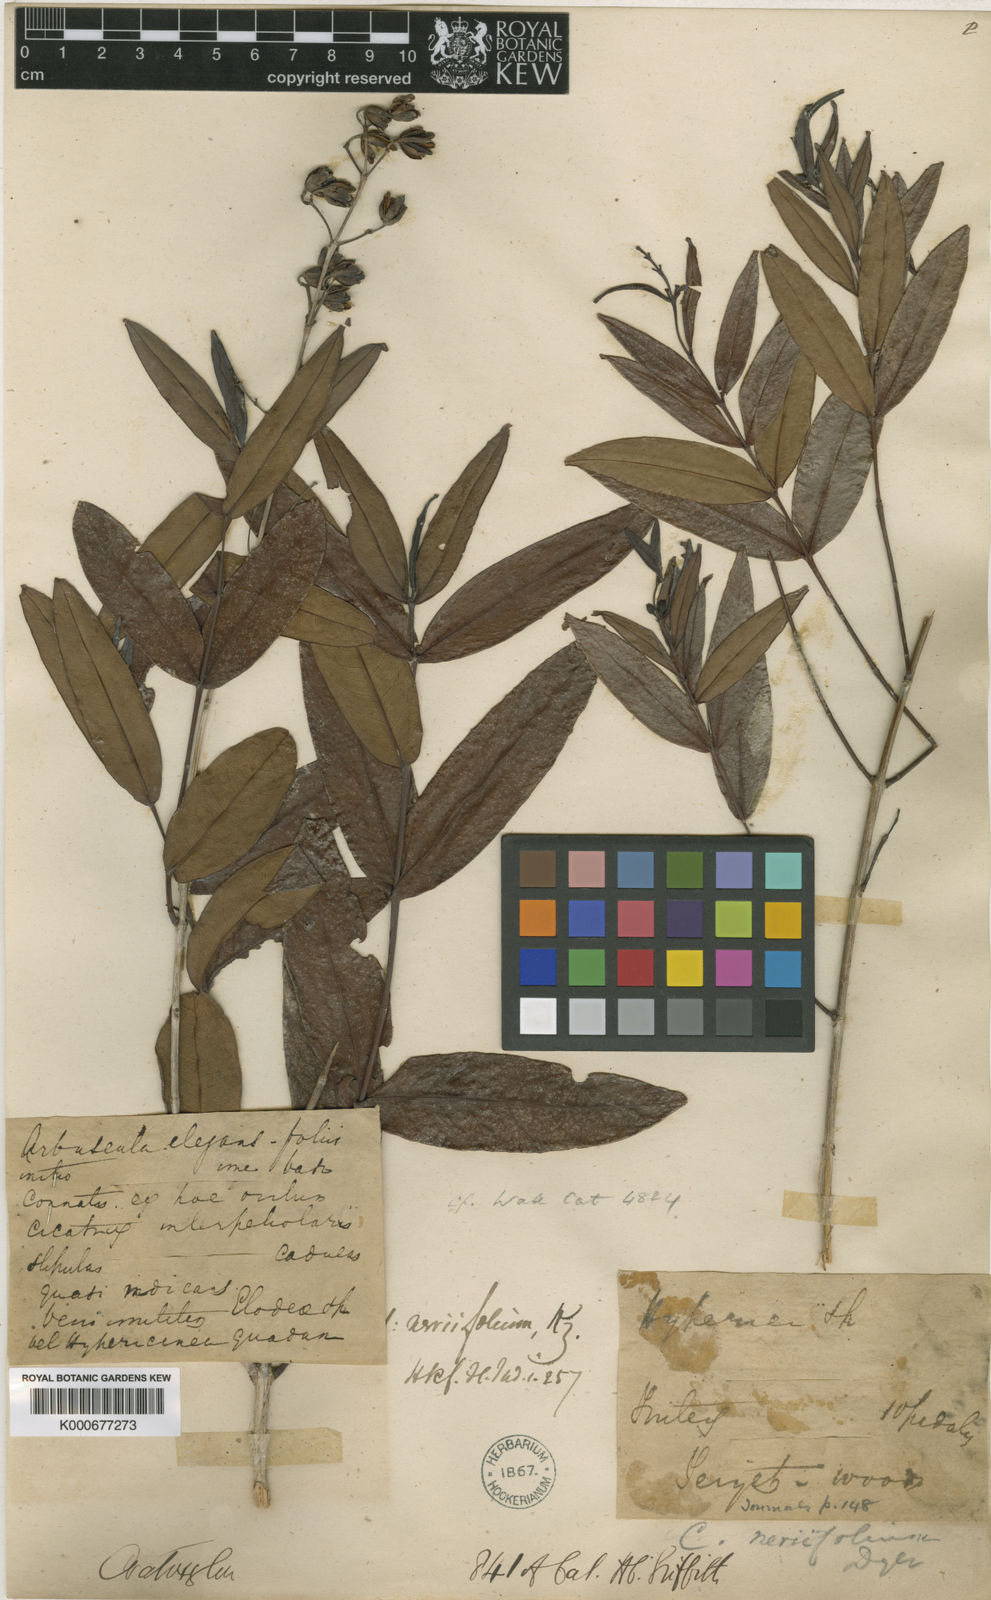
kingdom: Plantae
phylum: Tracheophyta
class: Magnoliopsida
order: Malpighiales
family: Hypericaceae
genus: Cratoxylum
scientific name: Cratoxylum
